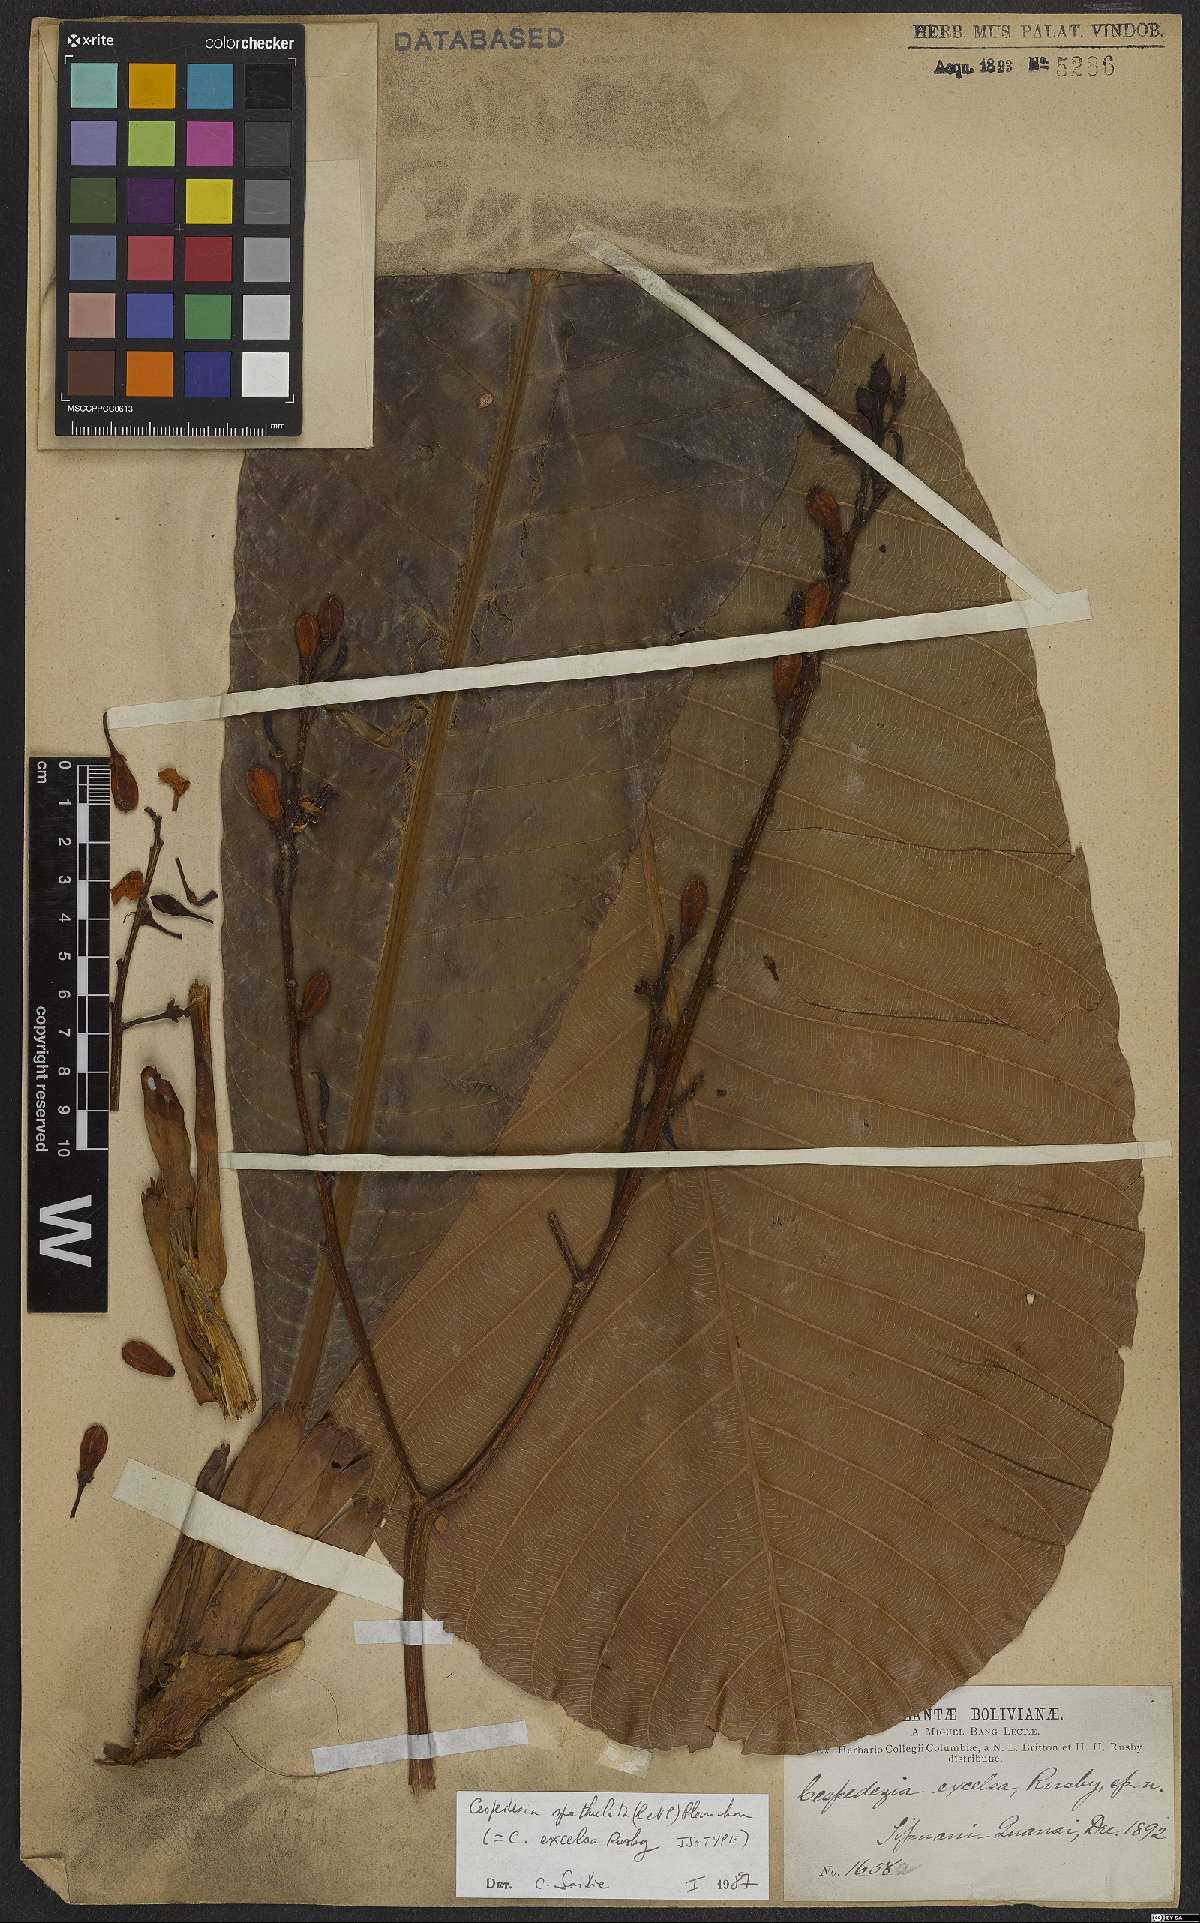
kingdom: Plantae
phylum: Tracheophyta
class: Magnoliopsida
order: Malpighiales
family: Ochnaceae
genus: Cespedesia
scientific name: Cespedesia spathulata
